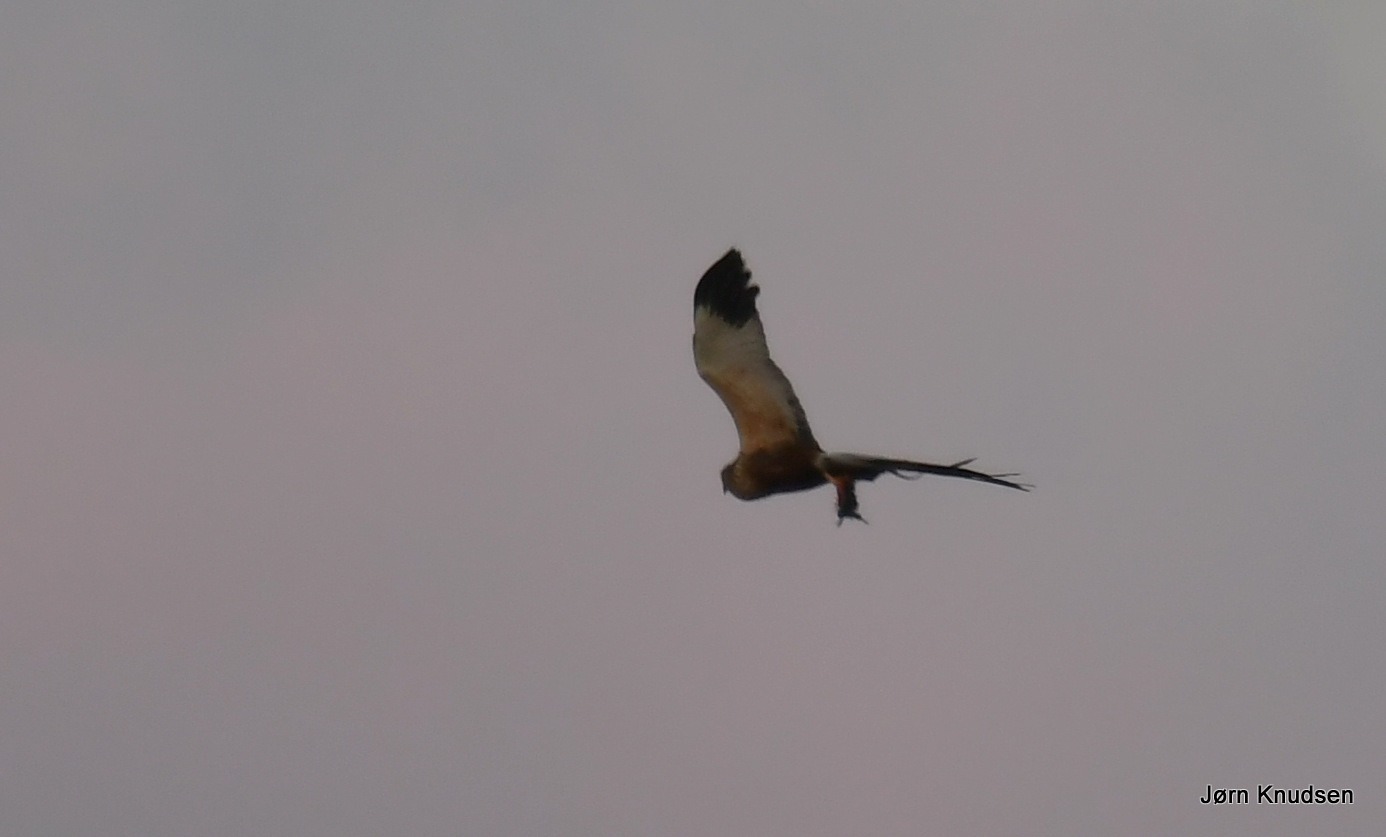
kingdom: Animalia
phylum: Chordata
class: Aves
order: Accipitriformes
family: Accipitridae
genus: Circus
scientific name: Circus aeruginosus
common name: Rørhøg
